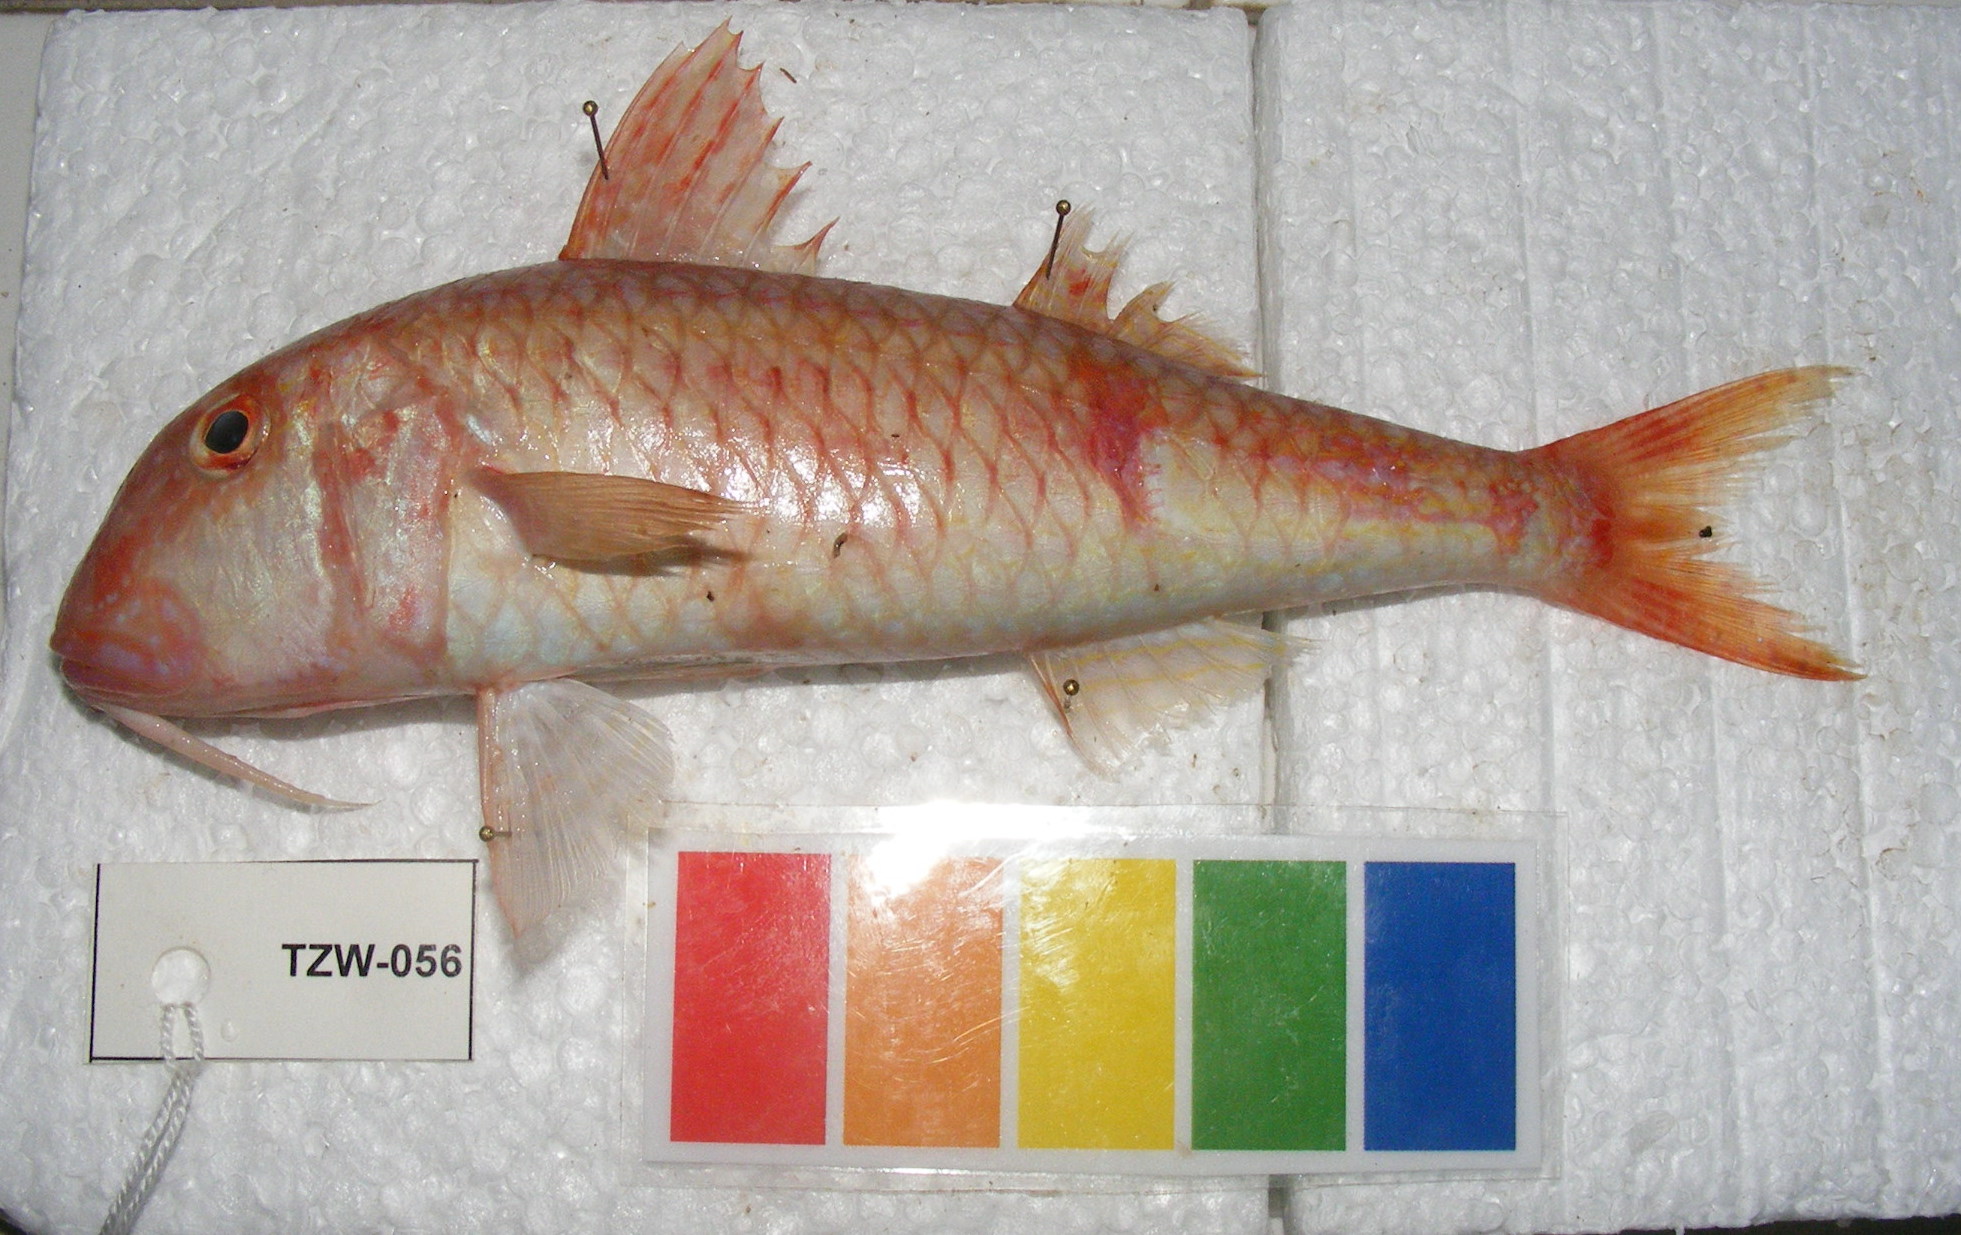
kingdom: Animalia
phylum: Chordata
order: Perciformes
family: Mullidae
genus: Parupeneus
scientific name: Parupeneus nansen
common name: Nansen goatfish
